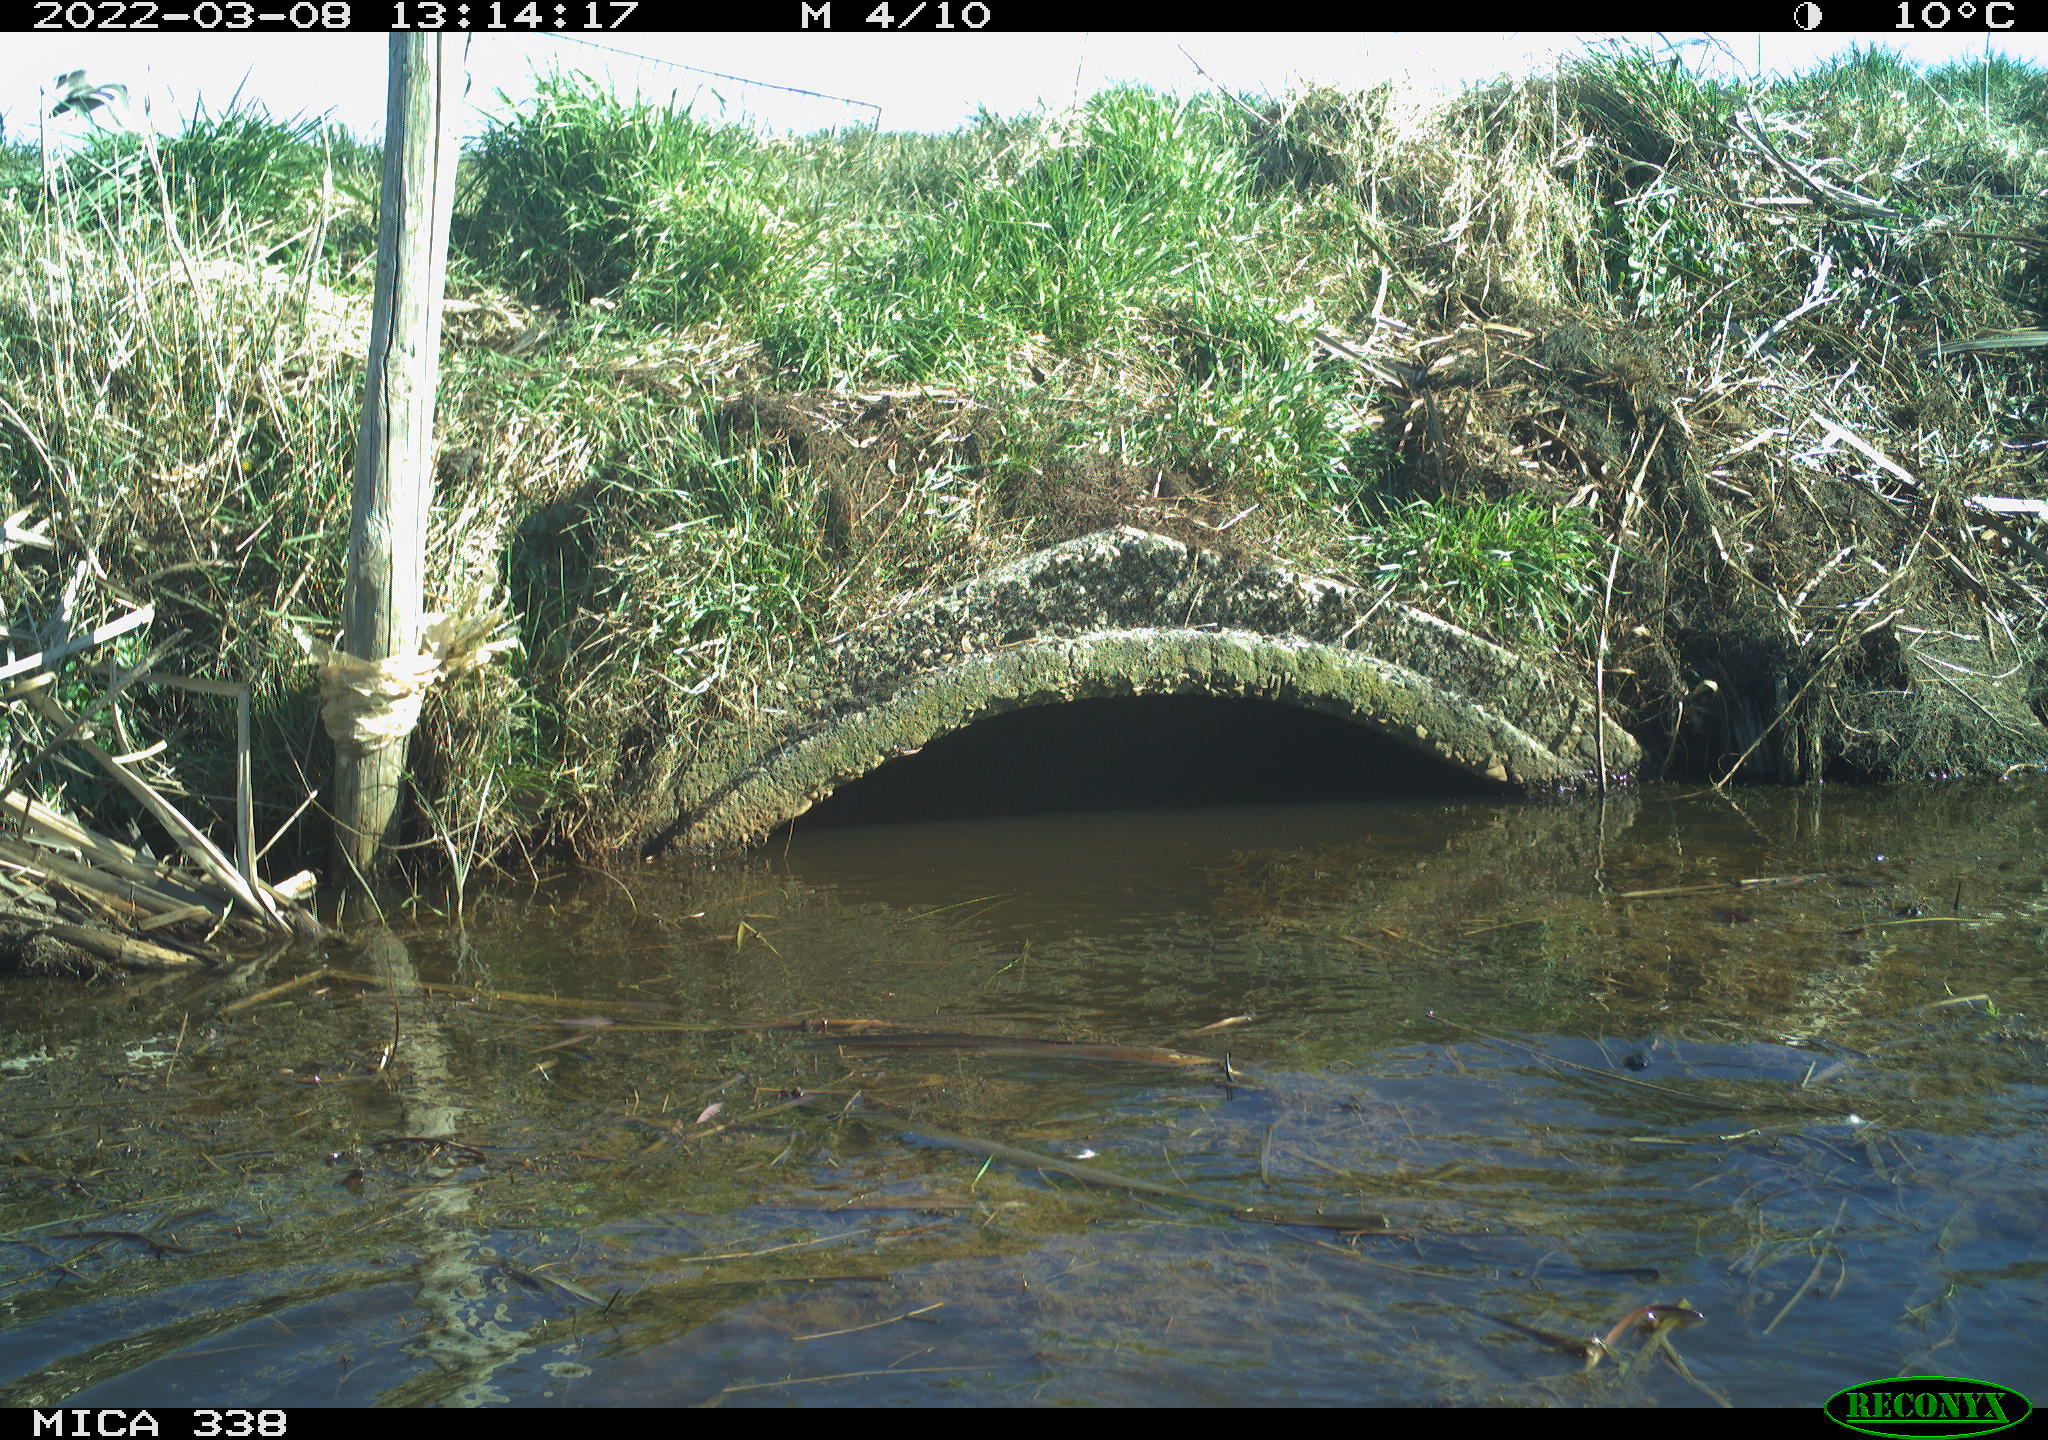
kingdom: Animalia
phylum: Chordata
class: Aves
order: Anseriformes
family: Anatidae
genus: Anas
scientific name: Anas platyrhynchos
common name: Mallard
